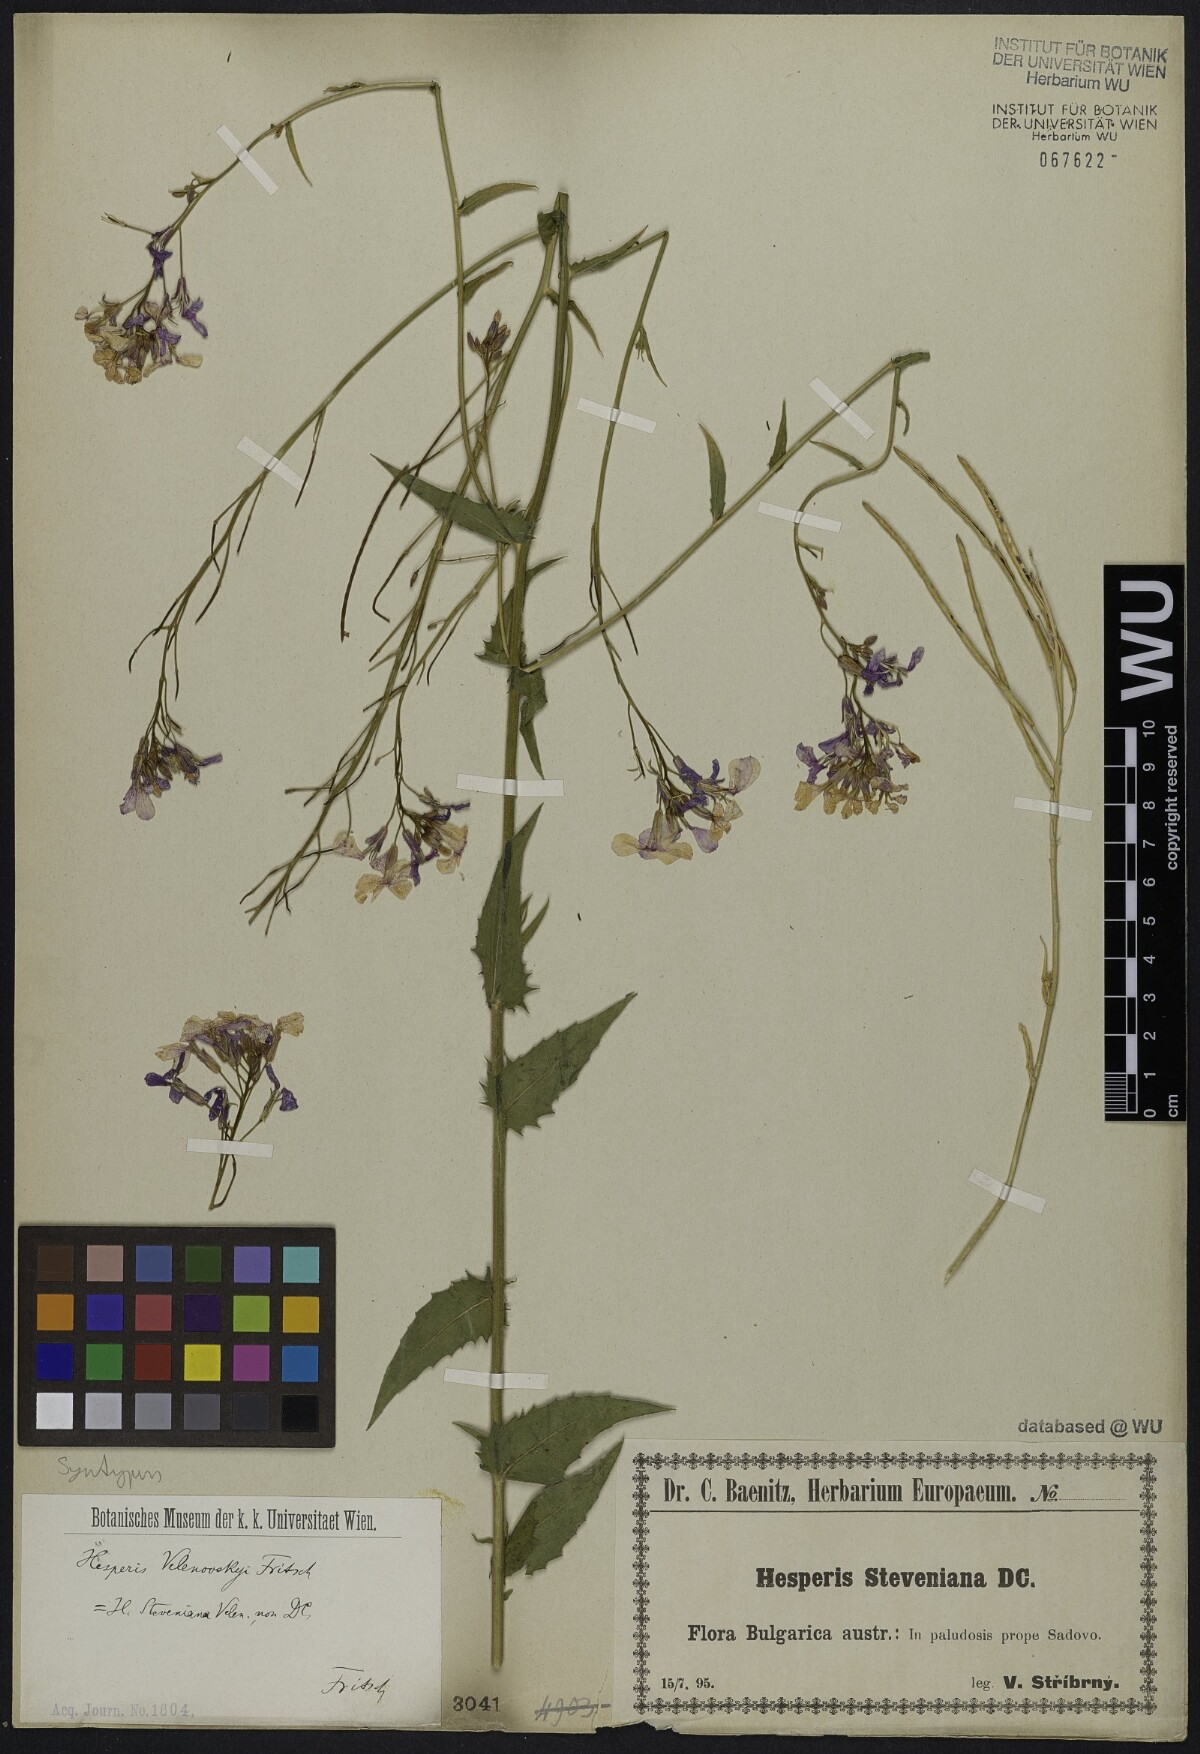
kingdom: Plantae
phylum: Tracheophyta
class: Magnoliopsida
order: Brassicales
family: Brassicaceae
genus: Hesperis
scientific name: Hesperis sylvestris
